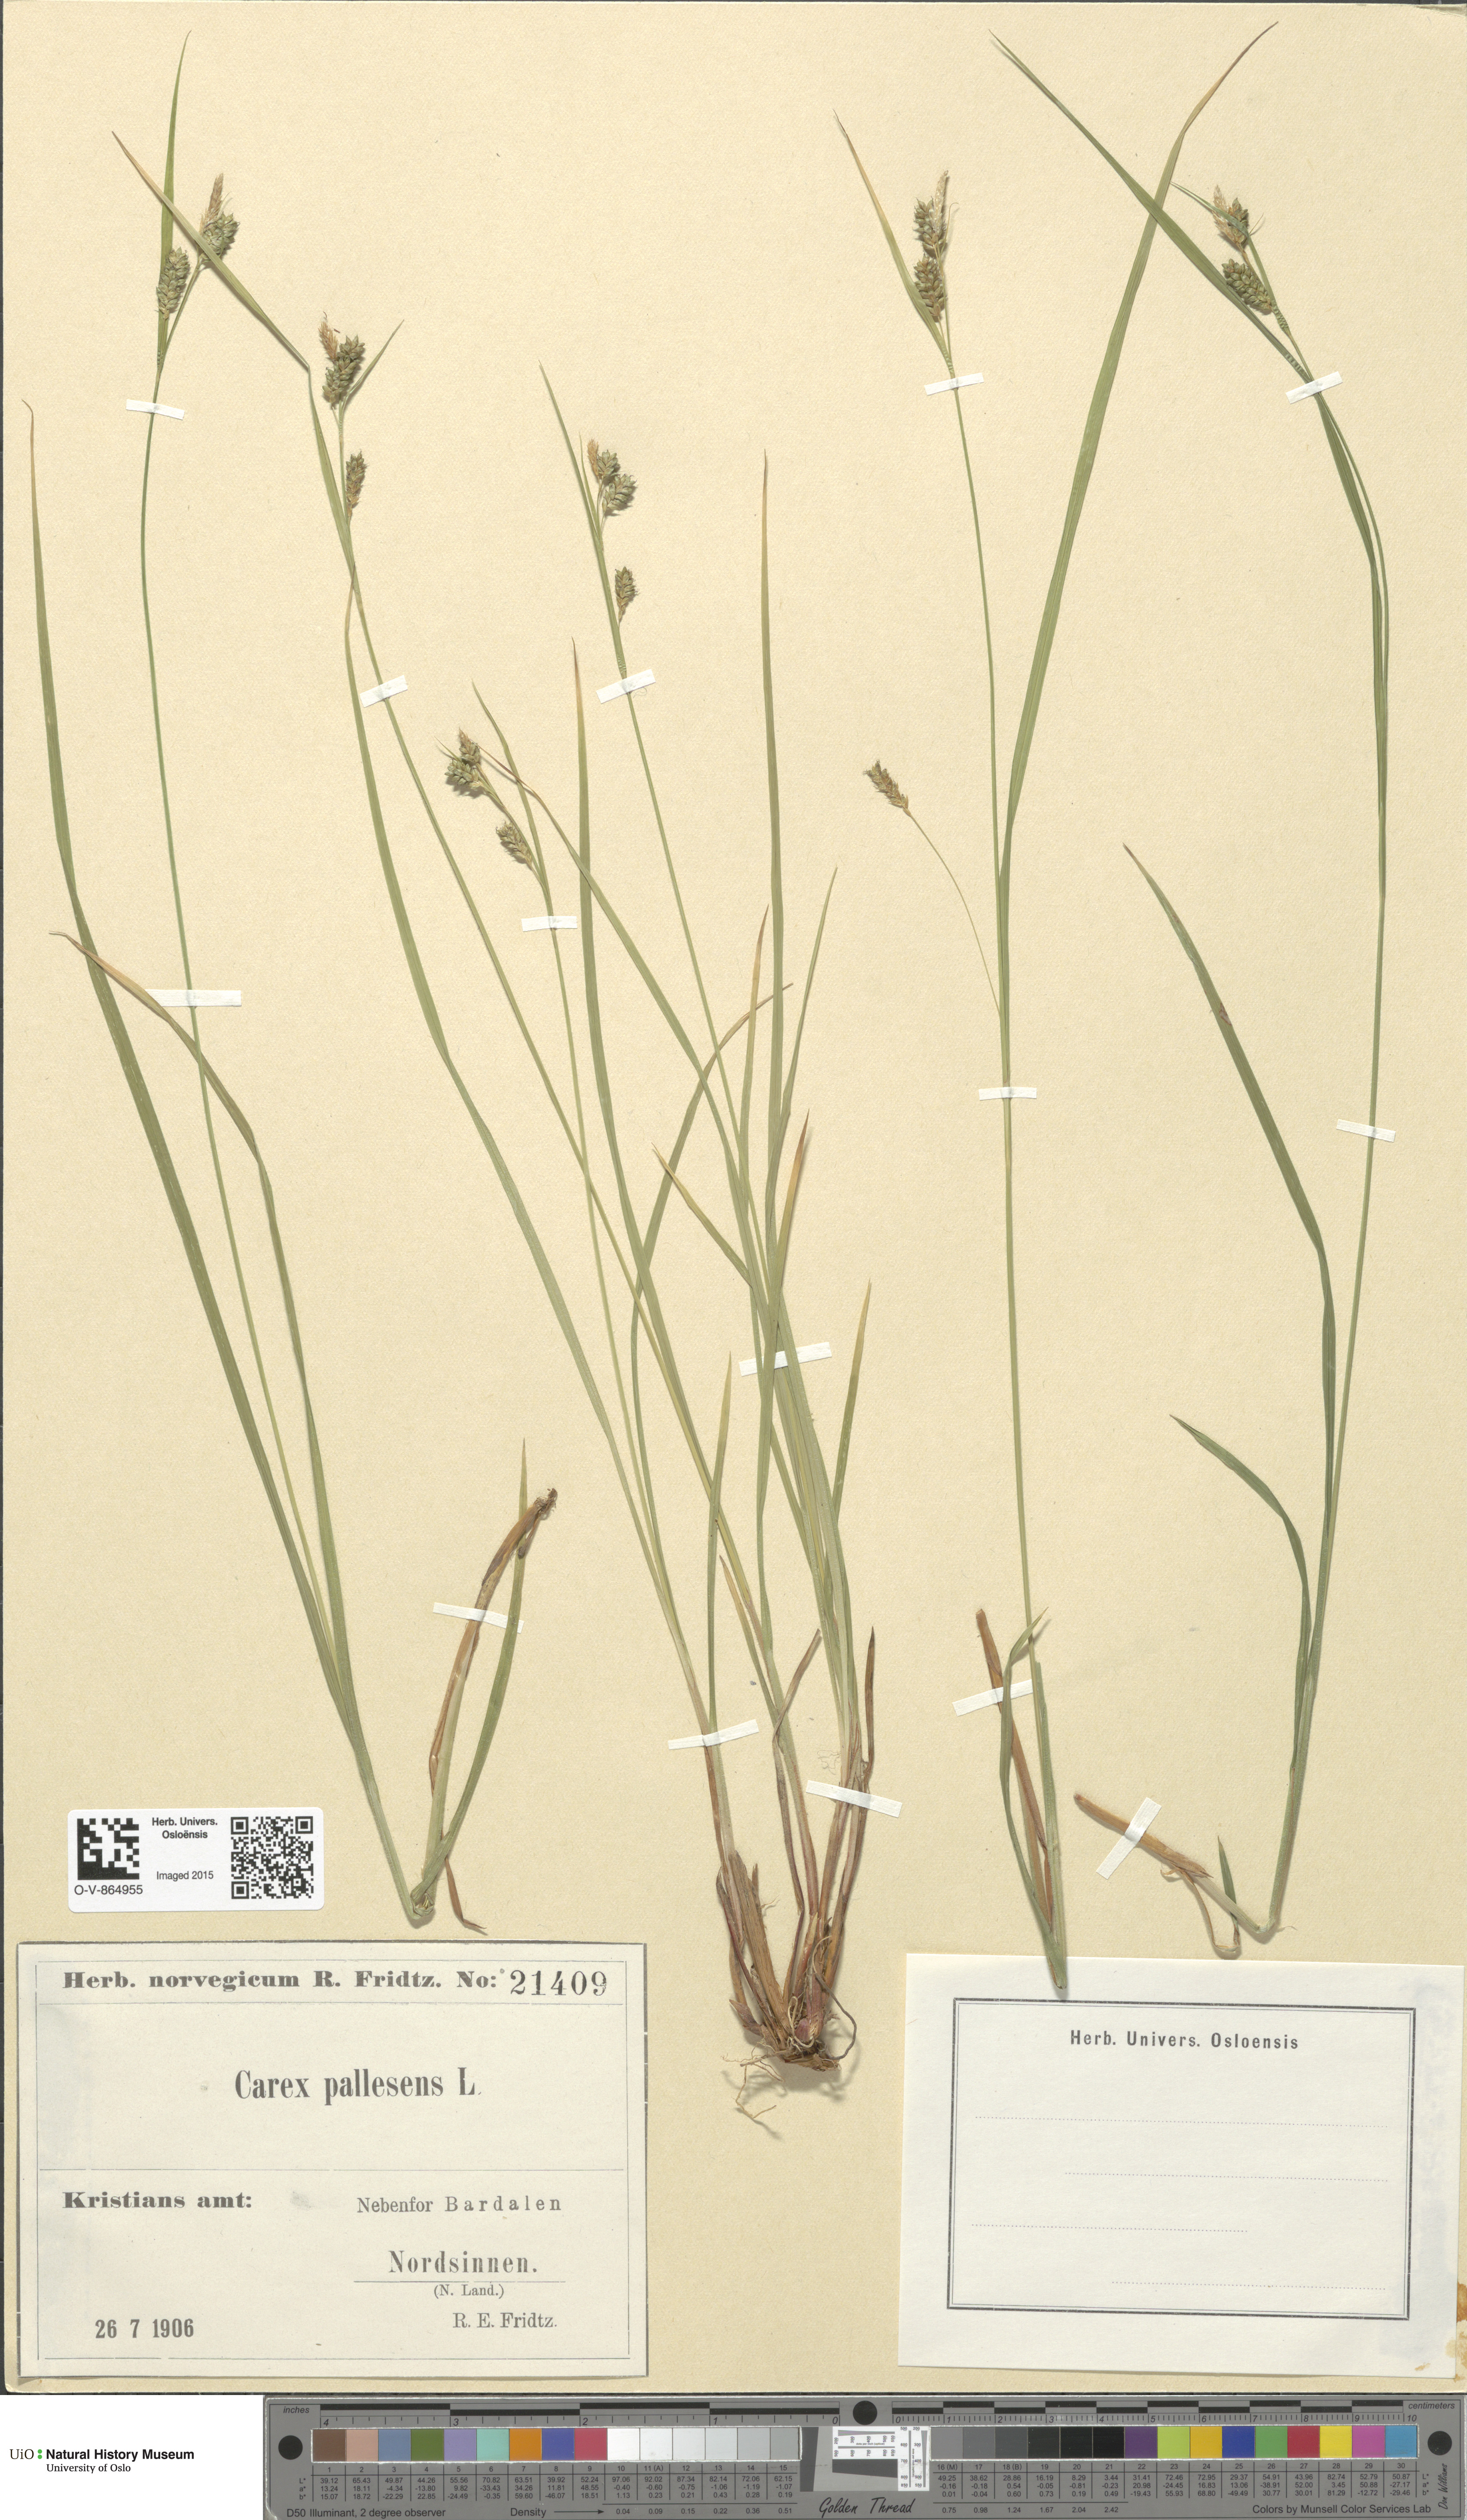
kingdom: Plantae
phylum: Tracheophyta
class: Liliopsida
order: Poales
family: Cyperaceae
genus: Carex
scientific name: Carex pallescens
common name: Pale sedge
